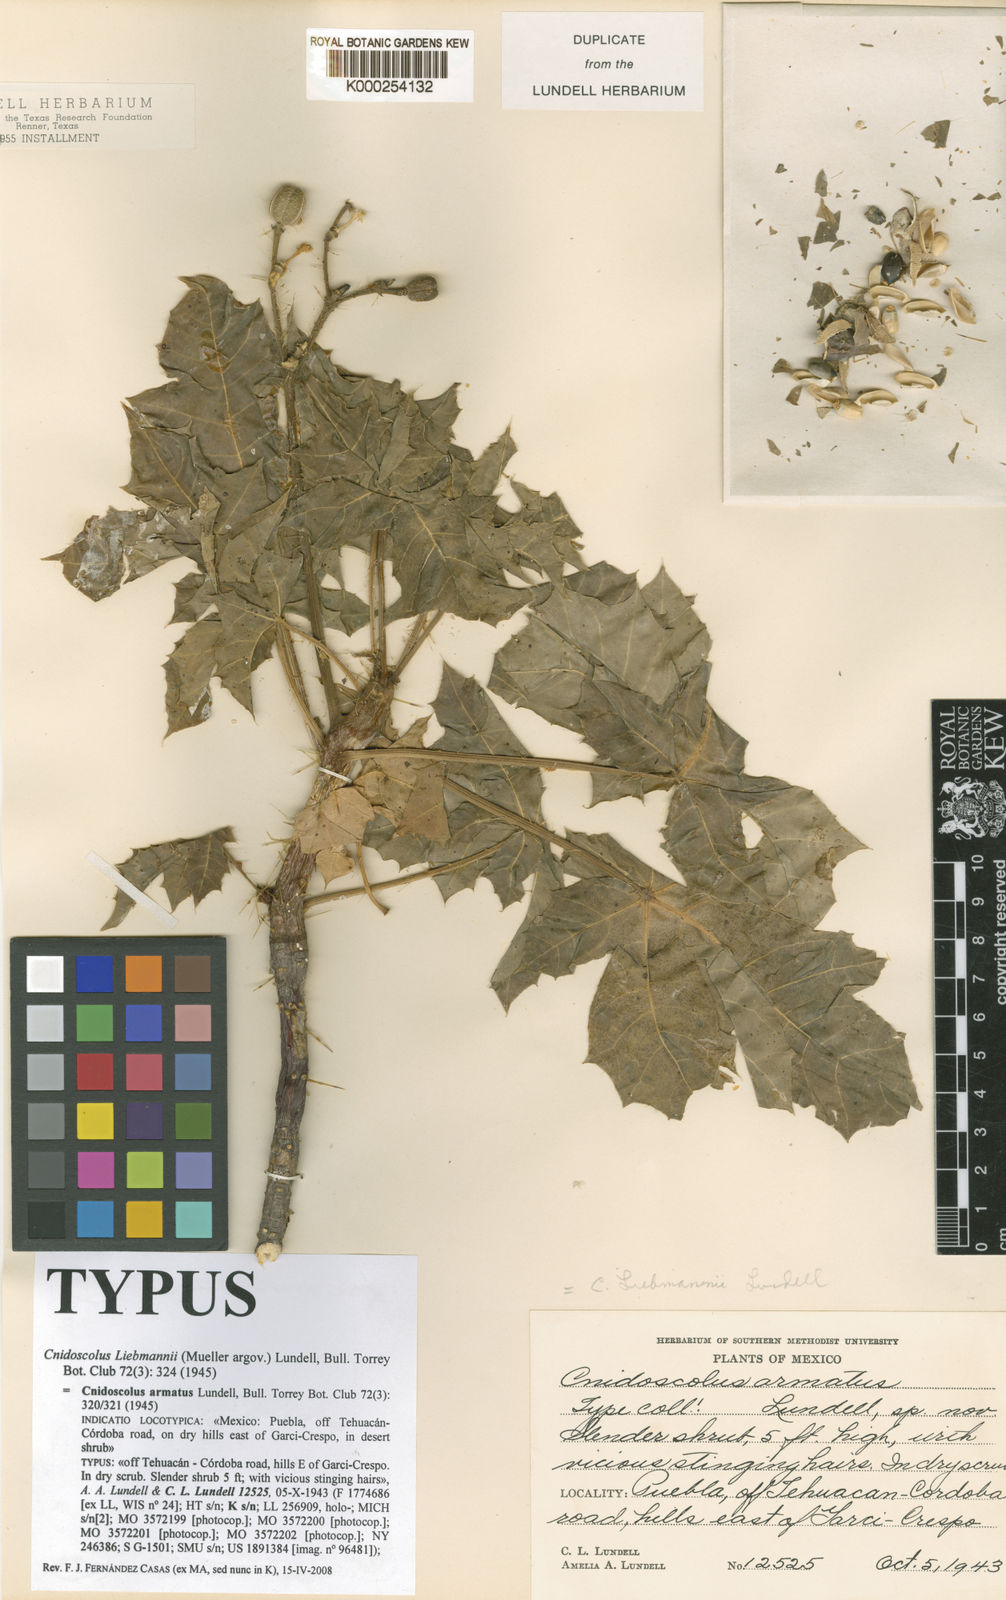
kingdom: Plantae
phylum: Tracheophyta
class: Magnoliopsida
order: Malpighiales
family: Euphorbiaceae
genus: Cnidoscolus
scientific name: Cnidoscolus
